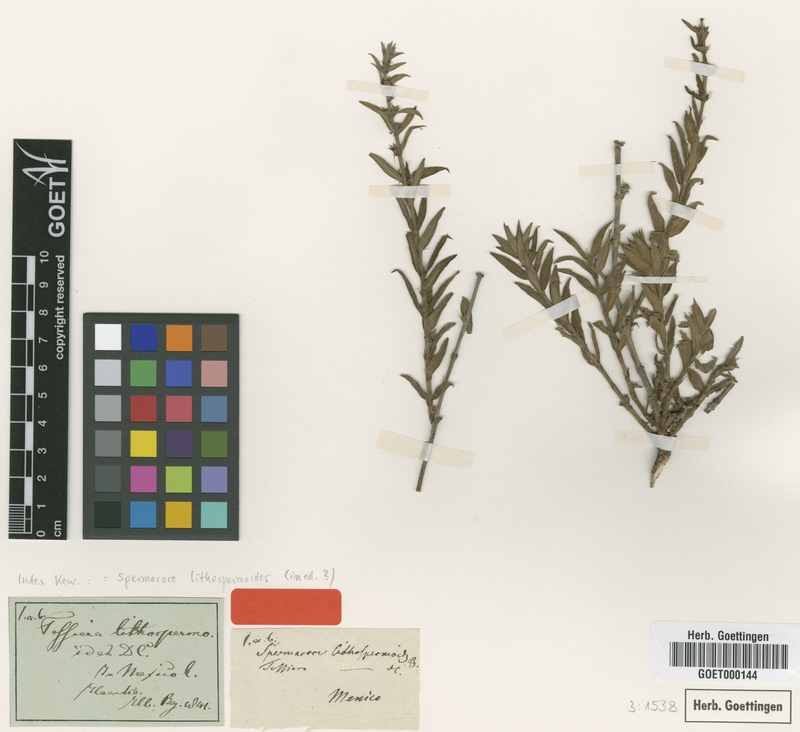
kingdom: Plantae
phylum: Tracheophyta
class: Magnoliopsida
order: Gentianales
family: Rubiaceae
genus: Tessiera
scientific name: Tessiera lithospermoides
